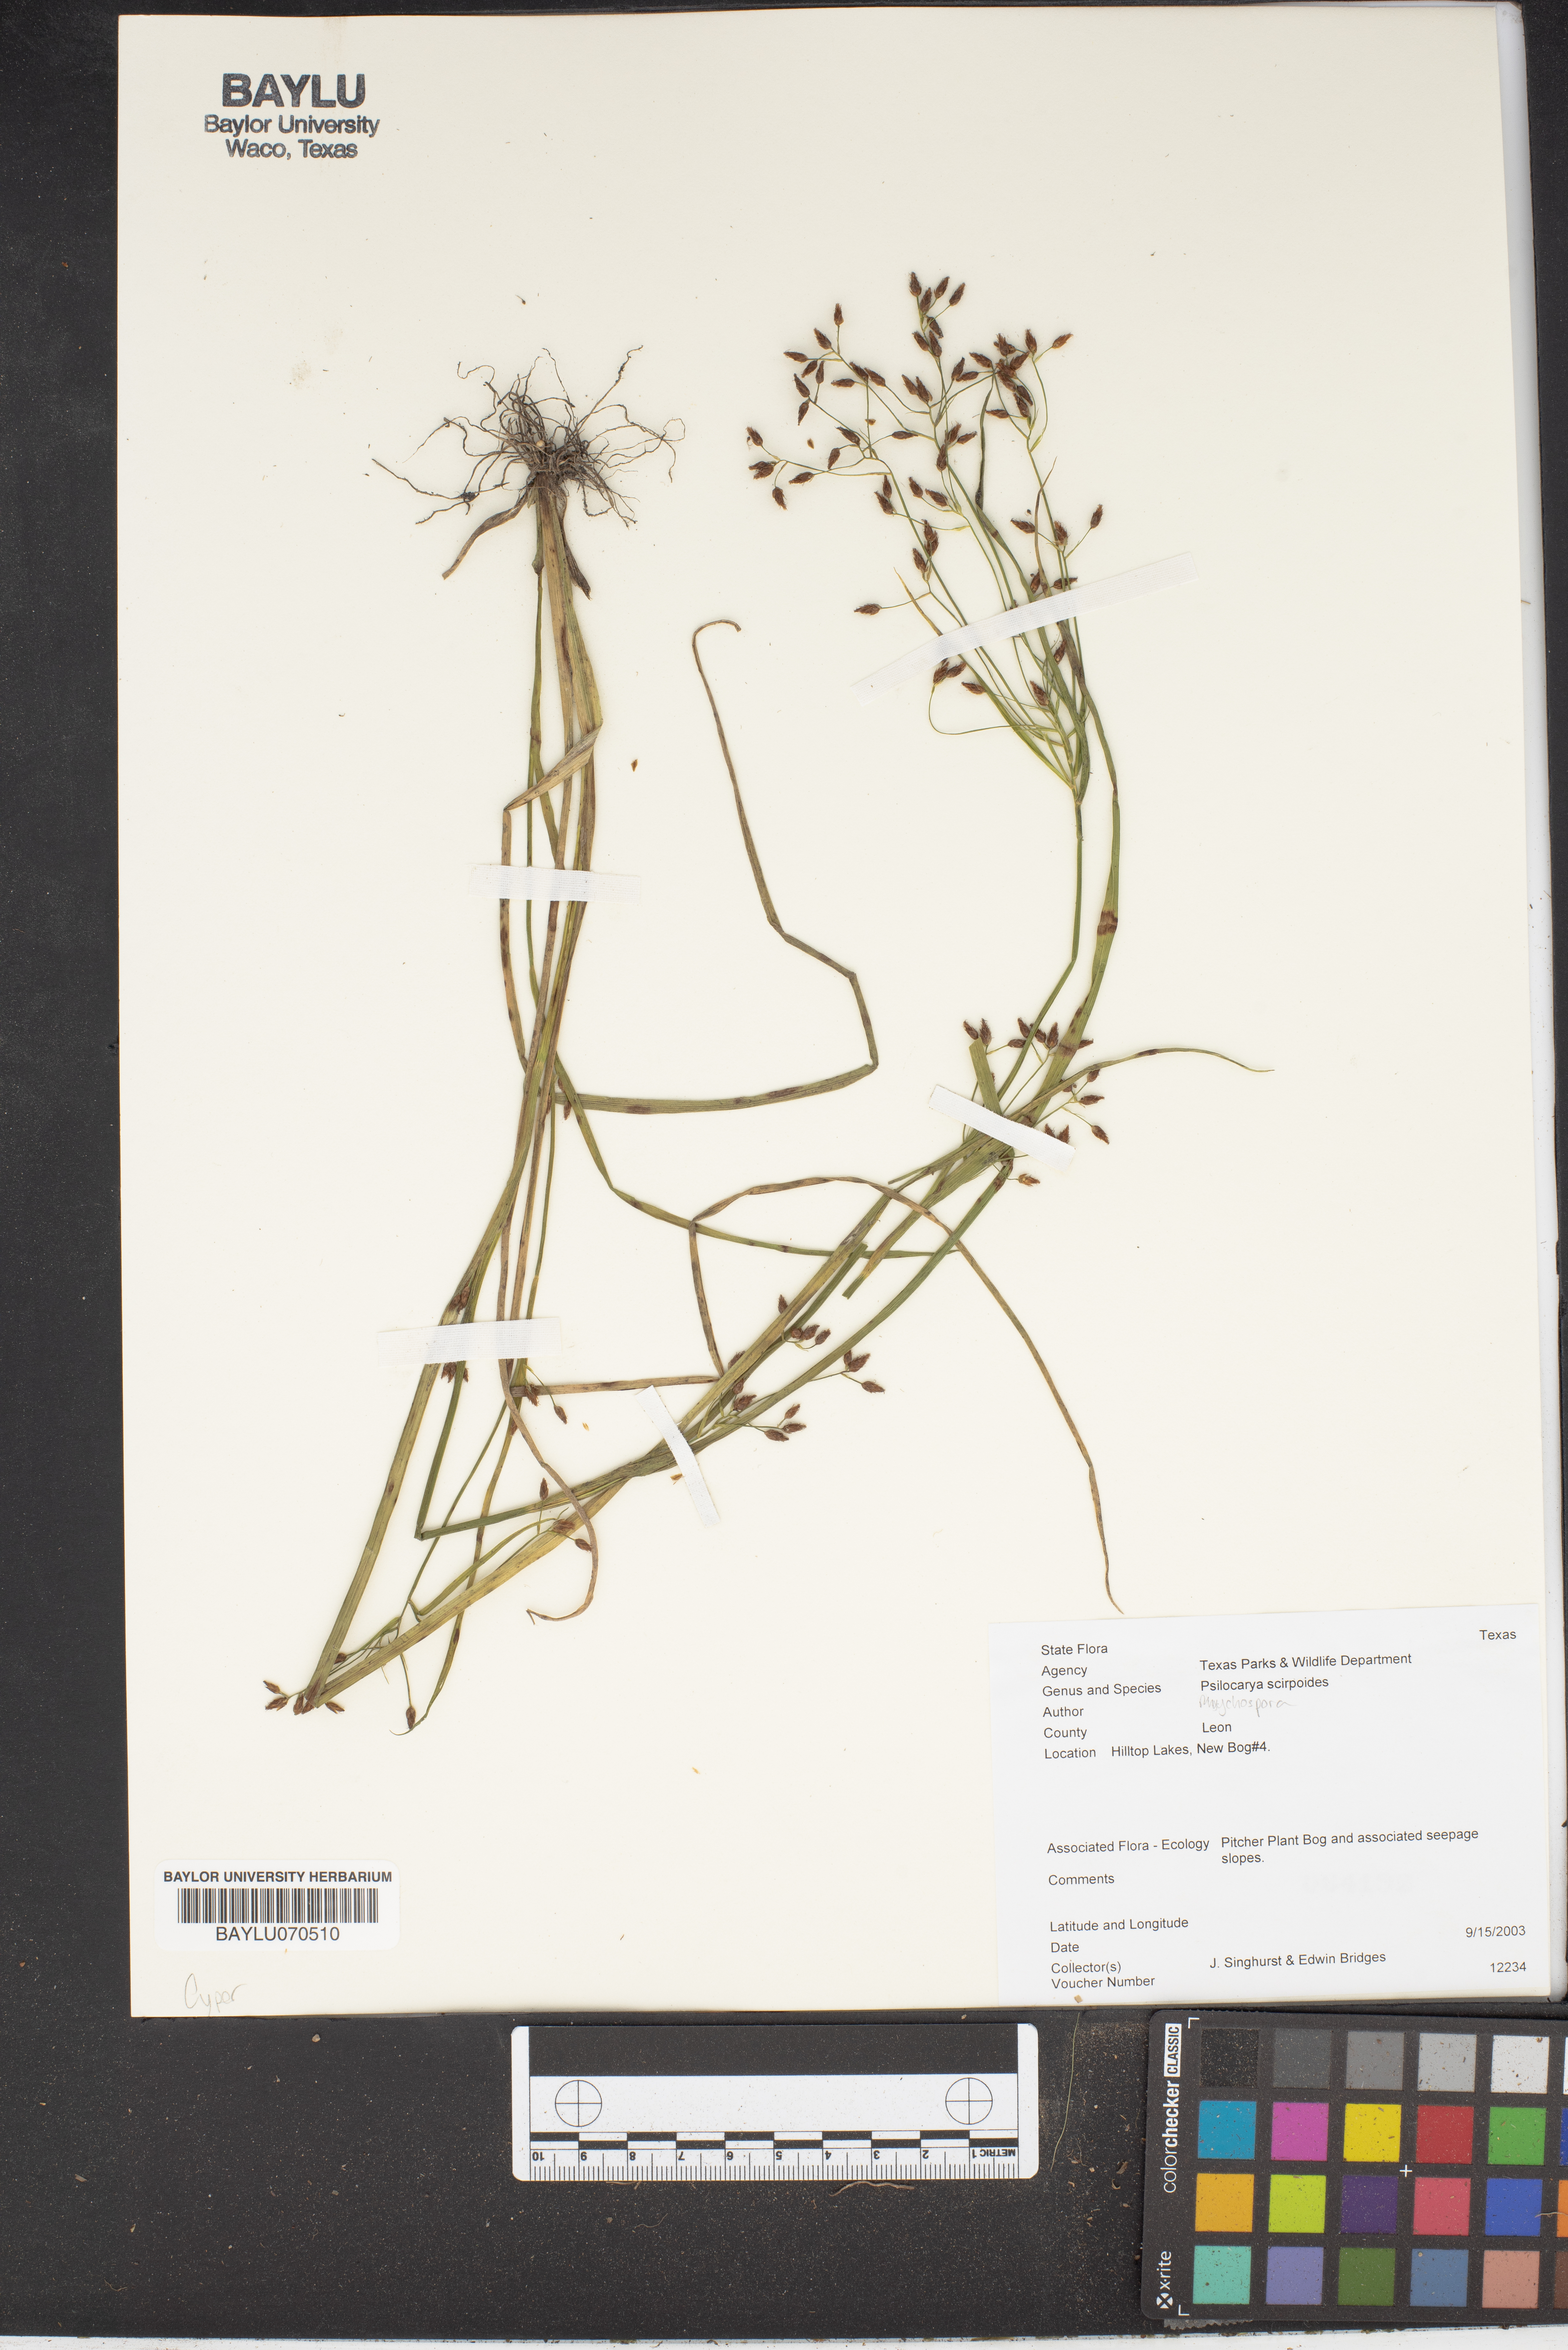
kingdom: Plantae
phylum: Tracheophyta
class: Liliopsida
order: Poales
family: Cyperaceae
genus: Rhynchospora
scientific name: Rhynchospora scirpoides
